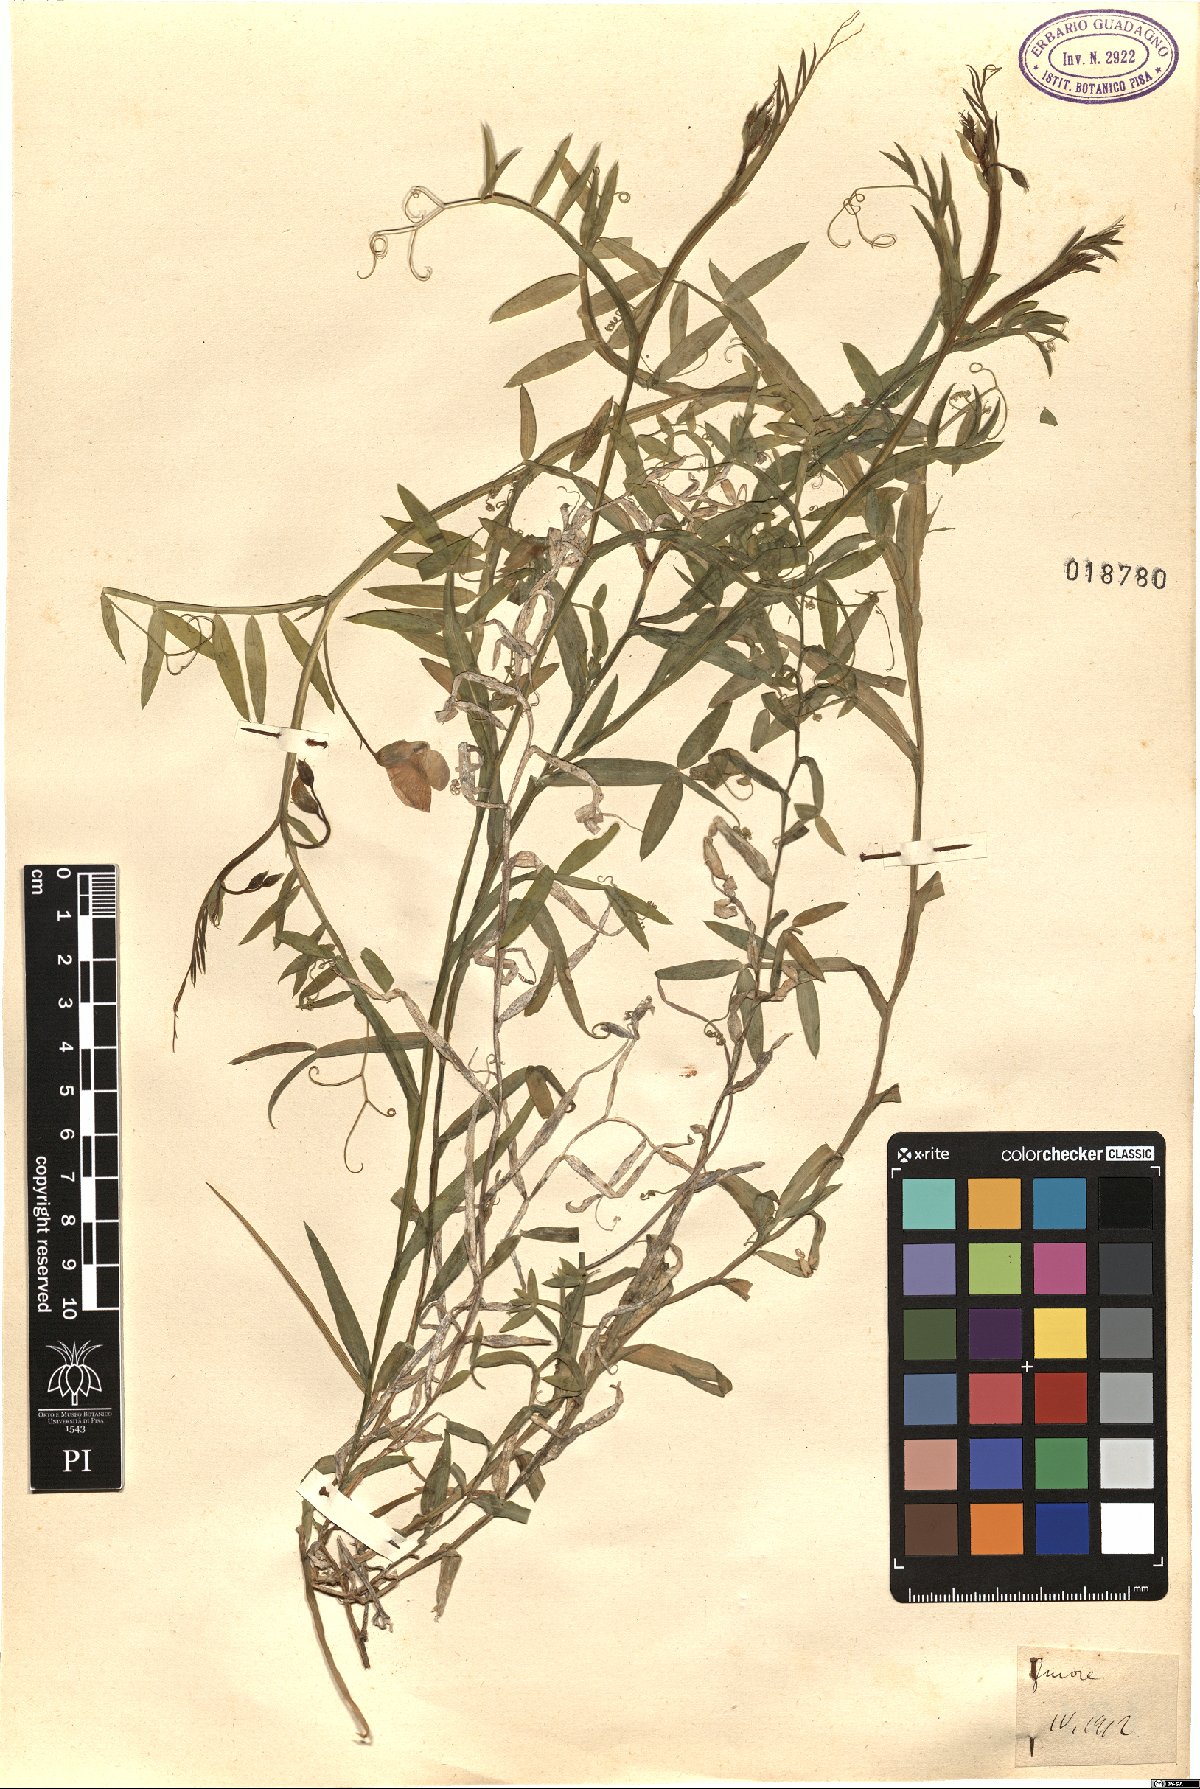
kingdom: Plantae
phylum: Tracheophyta
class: Magnoliopsida
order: Fabales
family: Fabaceae
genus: Lathyrus
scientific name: Lathyrus
